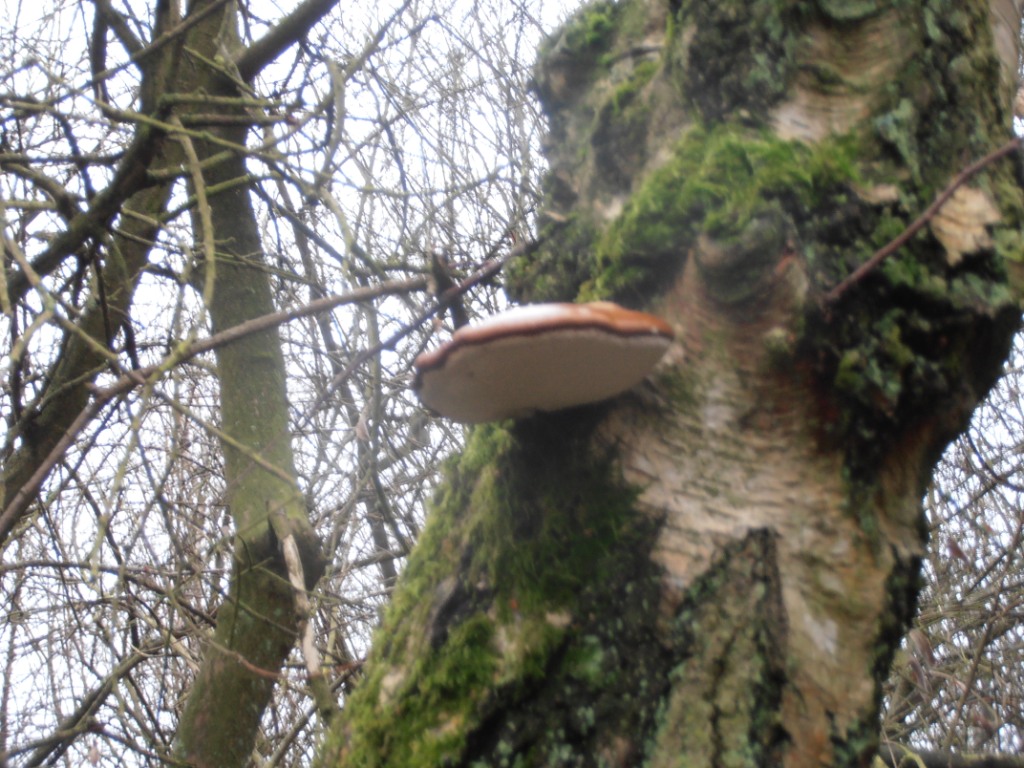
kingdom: Fungi
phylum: Basidiomycota
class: Agaricomycetes
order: Polyporales
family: Fomitopsidaceae
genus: Fomitopsis
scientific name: Fomitopsis betulina
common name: birkeporesvamp
